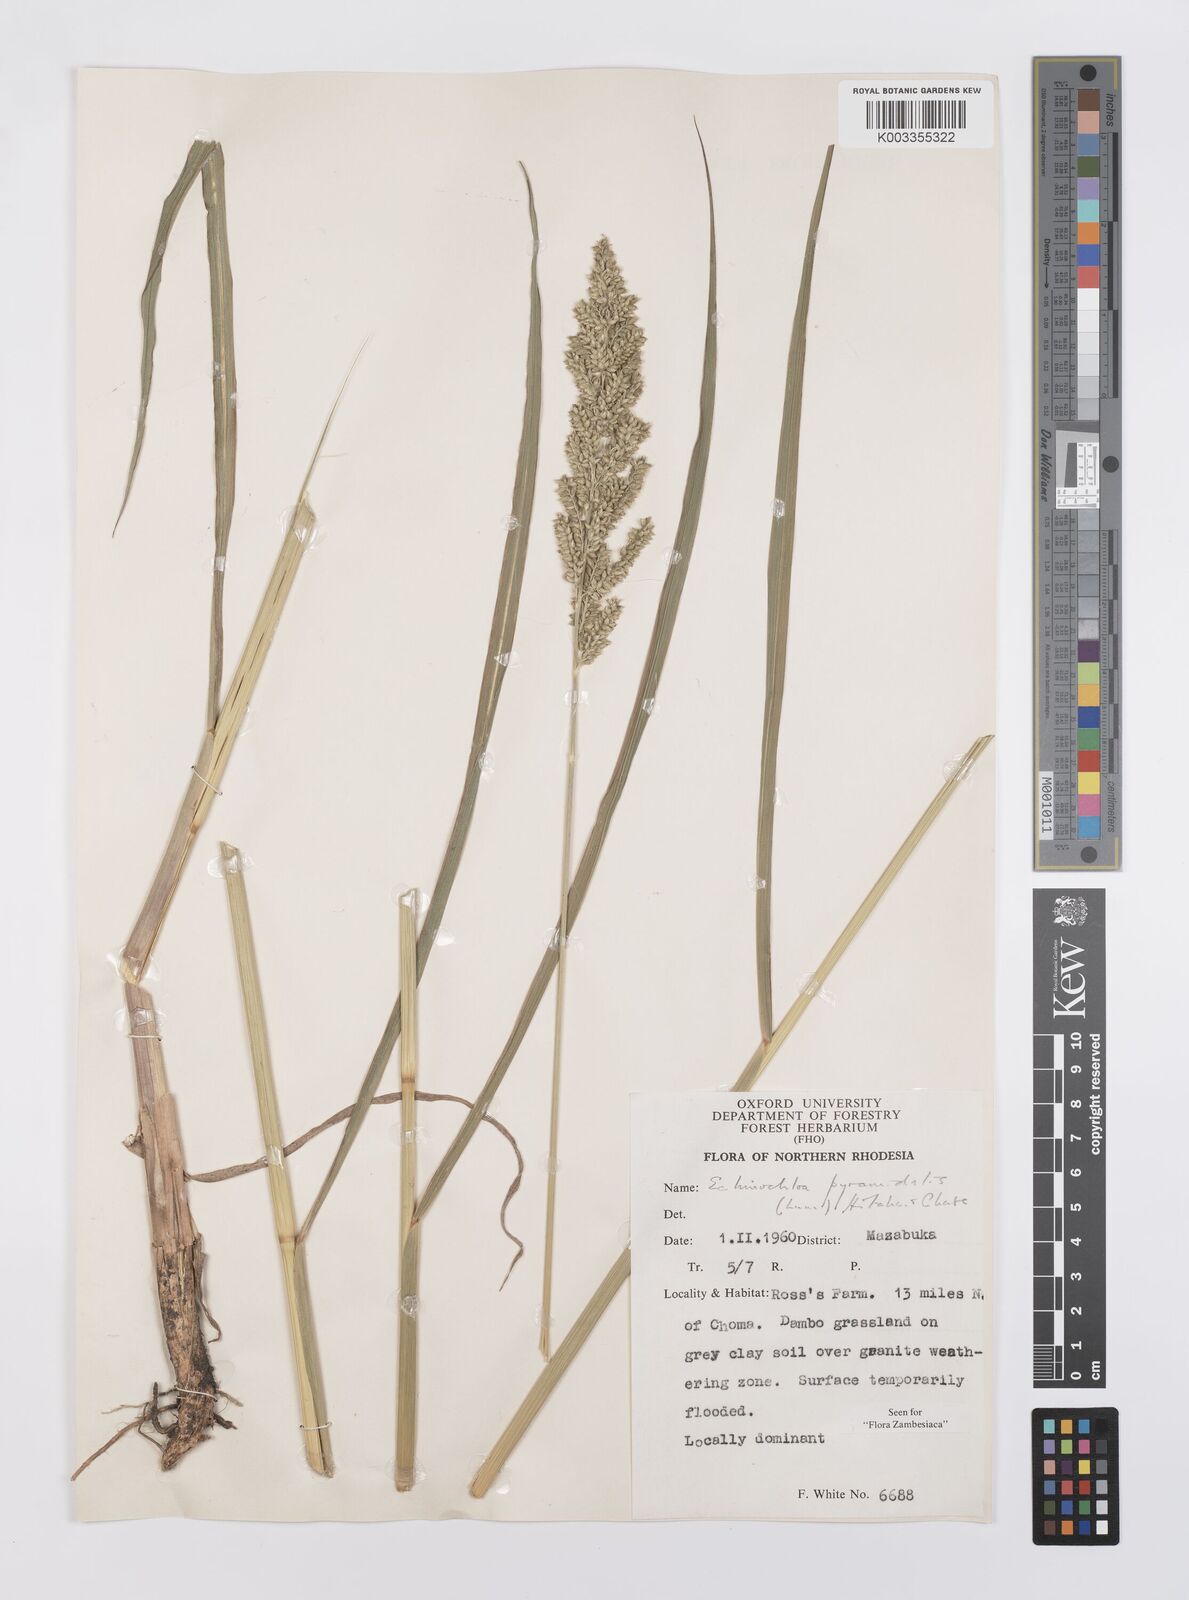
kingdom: Plantae
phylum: Tracheophyta
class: Liliopsida
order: Poales
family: Poaceae
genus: Echinochloa
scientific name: Echinochloa pyramidalis
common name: Antelope grass
